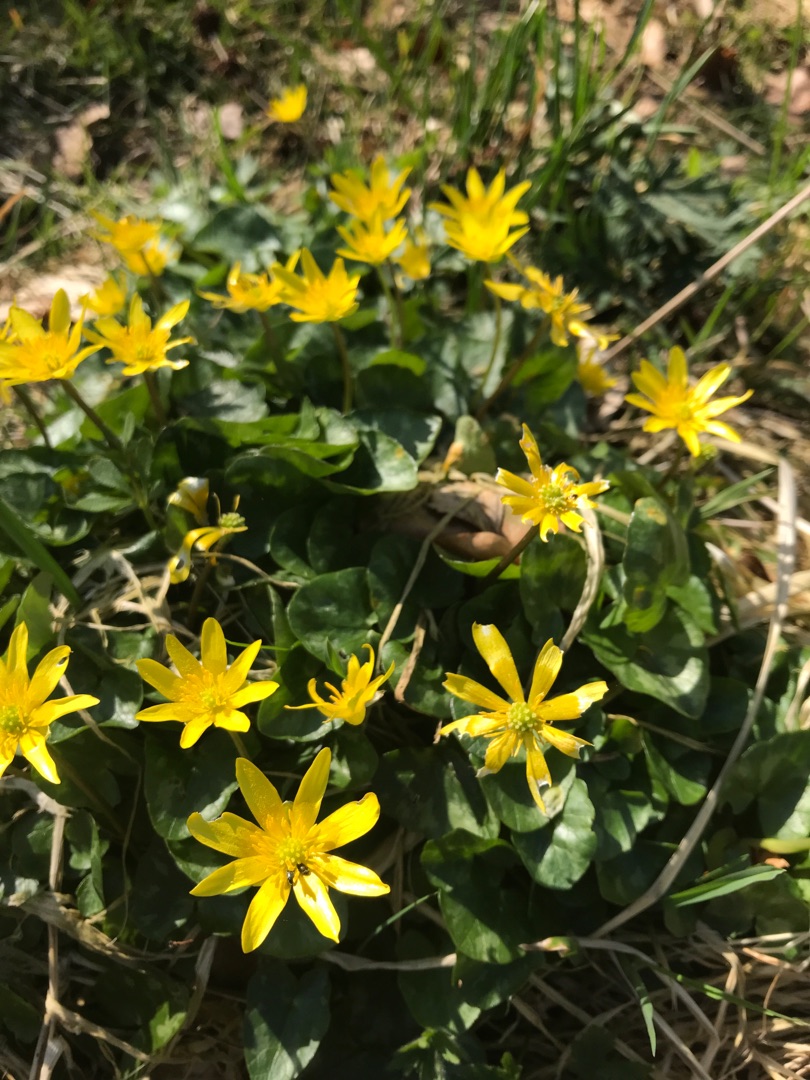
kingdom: Plantae
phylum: Tracheophyta
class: Magnoliopsida
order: Ranunculales
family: Ranunculaceae
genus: Ficaria
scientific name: Ficaria verna
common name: Vorterod
